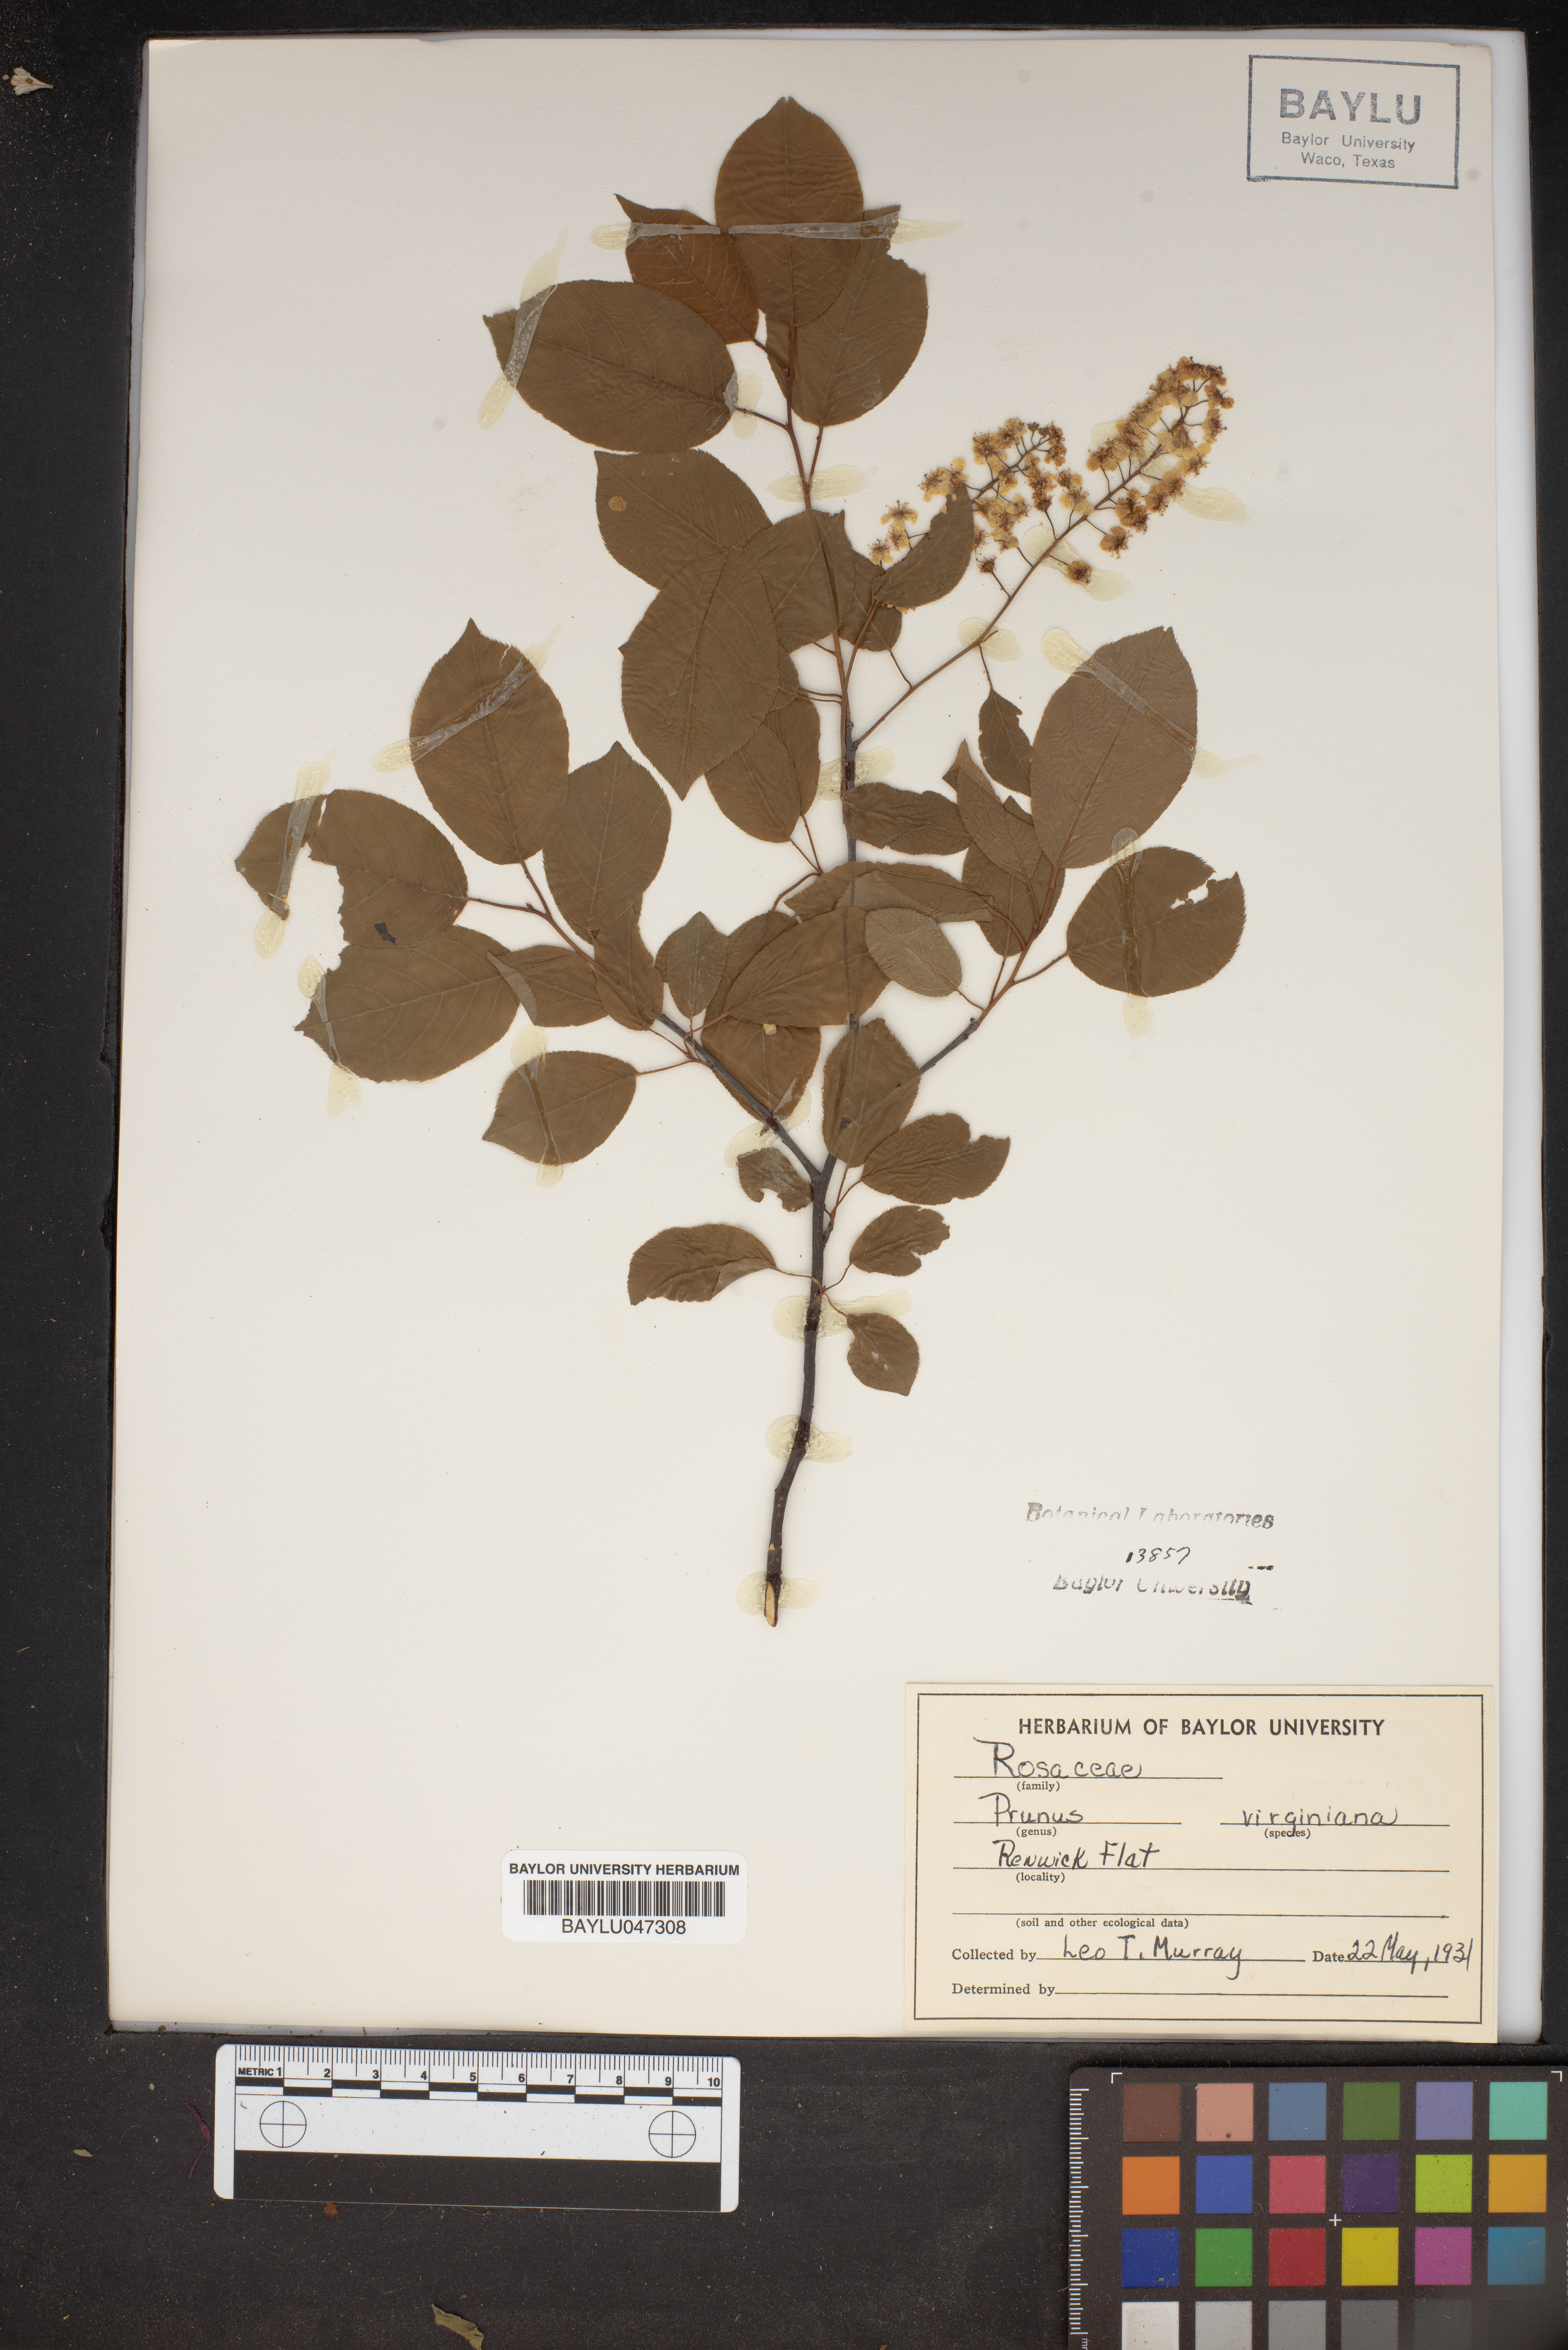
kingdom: Plantae
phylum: Tracheophyta
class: Magnoliopsida
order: Rosales
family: Rosaceae
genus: Prunus
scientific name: Prunus virginiana
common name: Chokecherry
